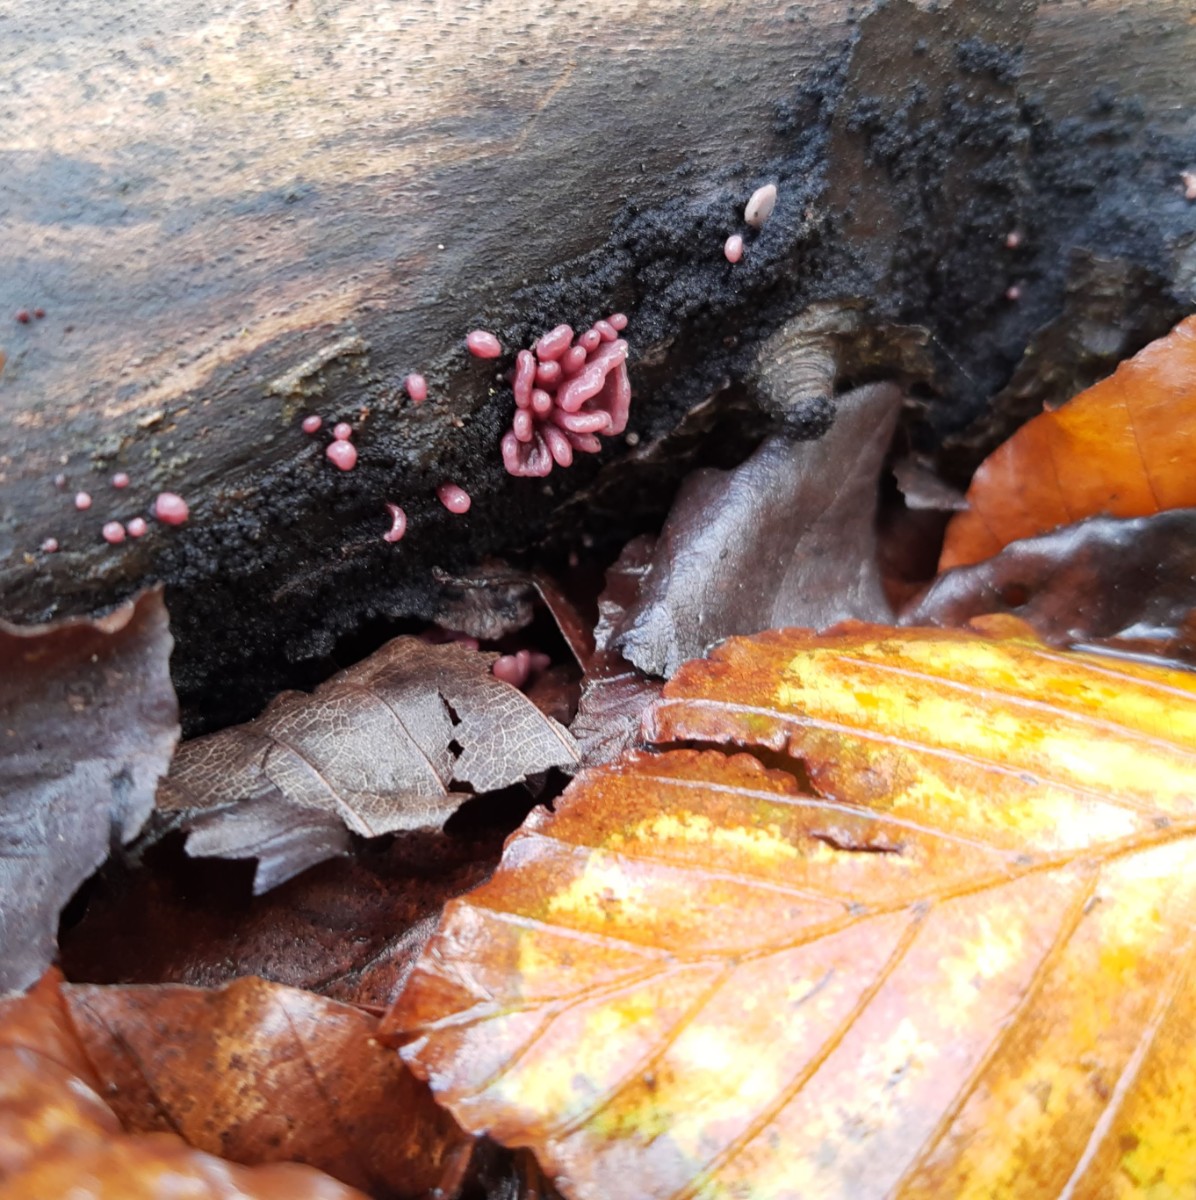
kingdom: Fungi
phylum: Ascomycota
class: Leotiomycetes
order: Helotiales
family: Gelatinodiscaceae
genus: Ascocoryne
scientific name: Ascocoryne sarcoides
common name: rødlilla sejskive
